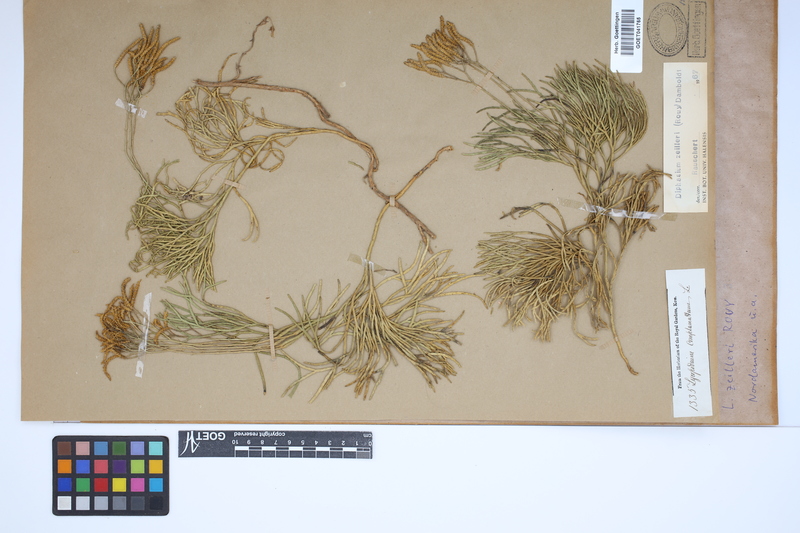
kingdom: Plantae
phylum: Tracheophyta
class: Lycopodiopsida
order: Lycopodiales
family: Lycopodiaceae
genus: Diphasiastrum
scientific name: Diphasiastrum zeilleri
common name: Zeiller's clubmoss
